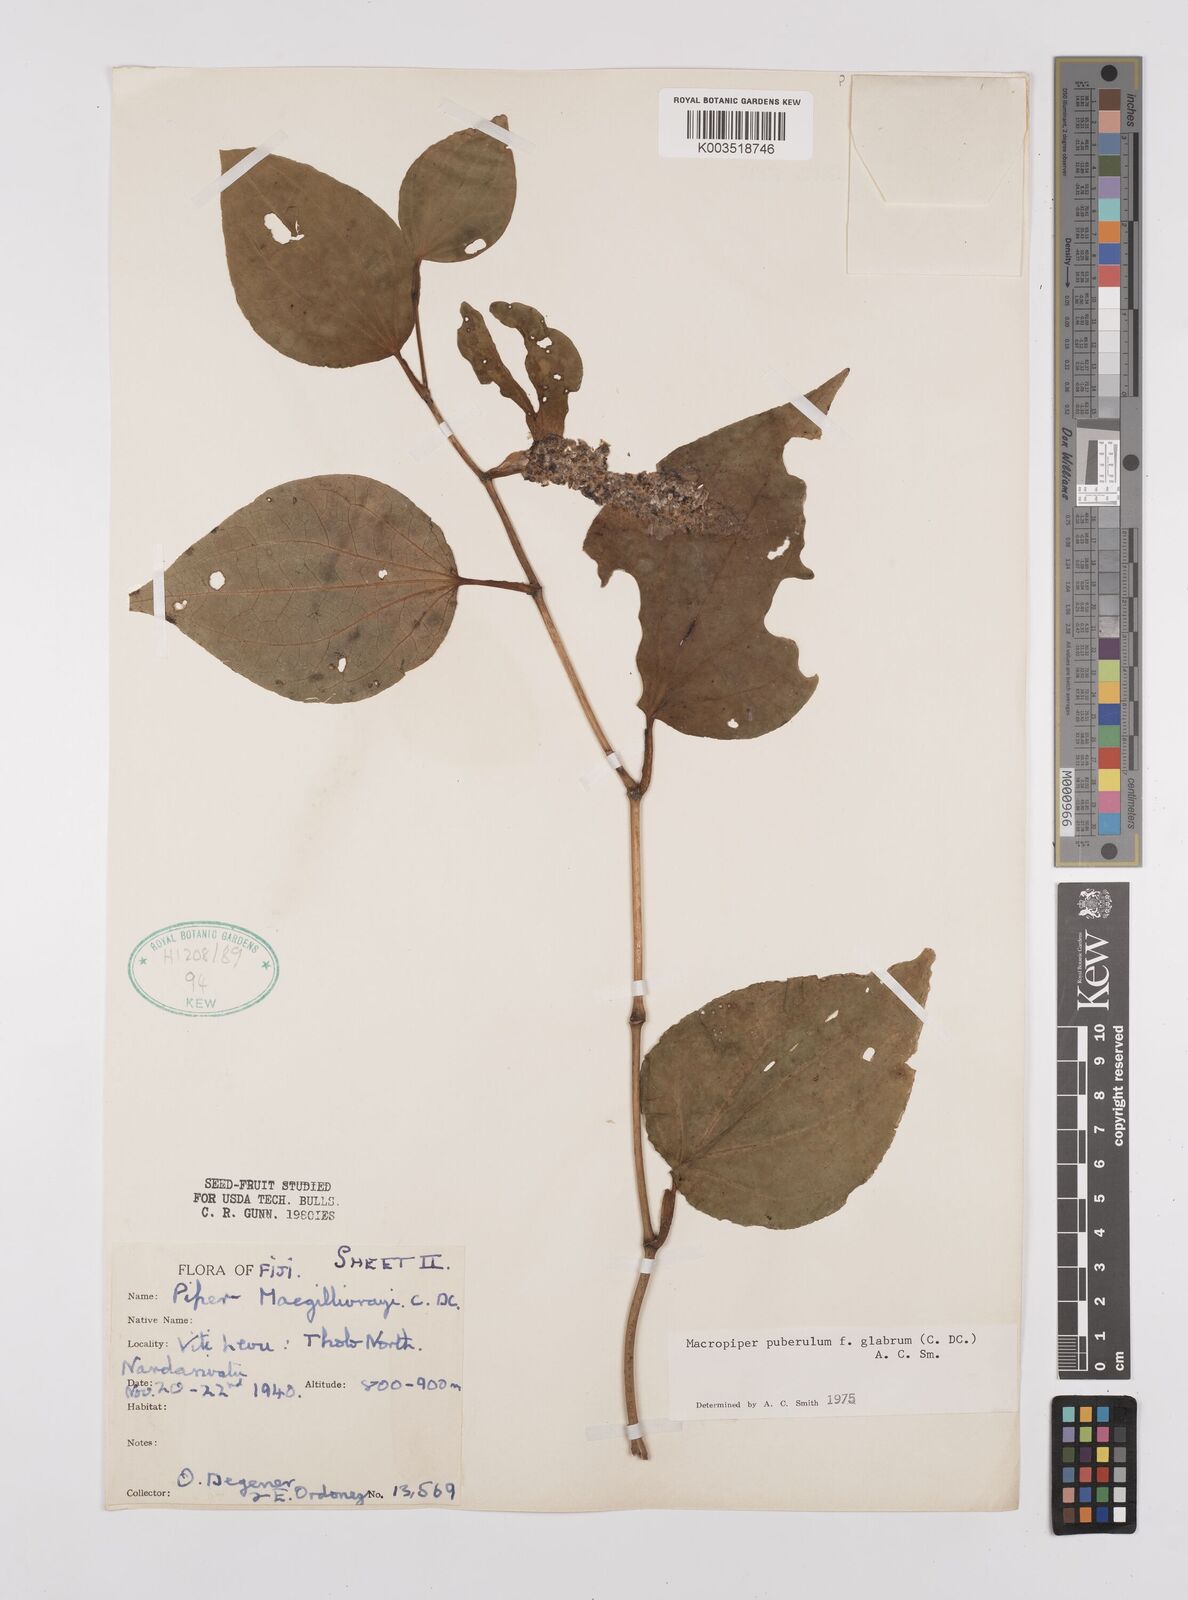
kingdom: Plantae
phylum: Tracheophyta
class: Magnoliopsida
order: Piperales
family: Piperaceae
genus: Macropiper
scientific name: Macropiper puberulum
